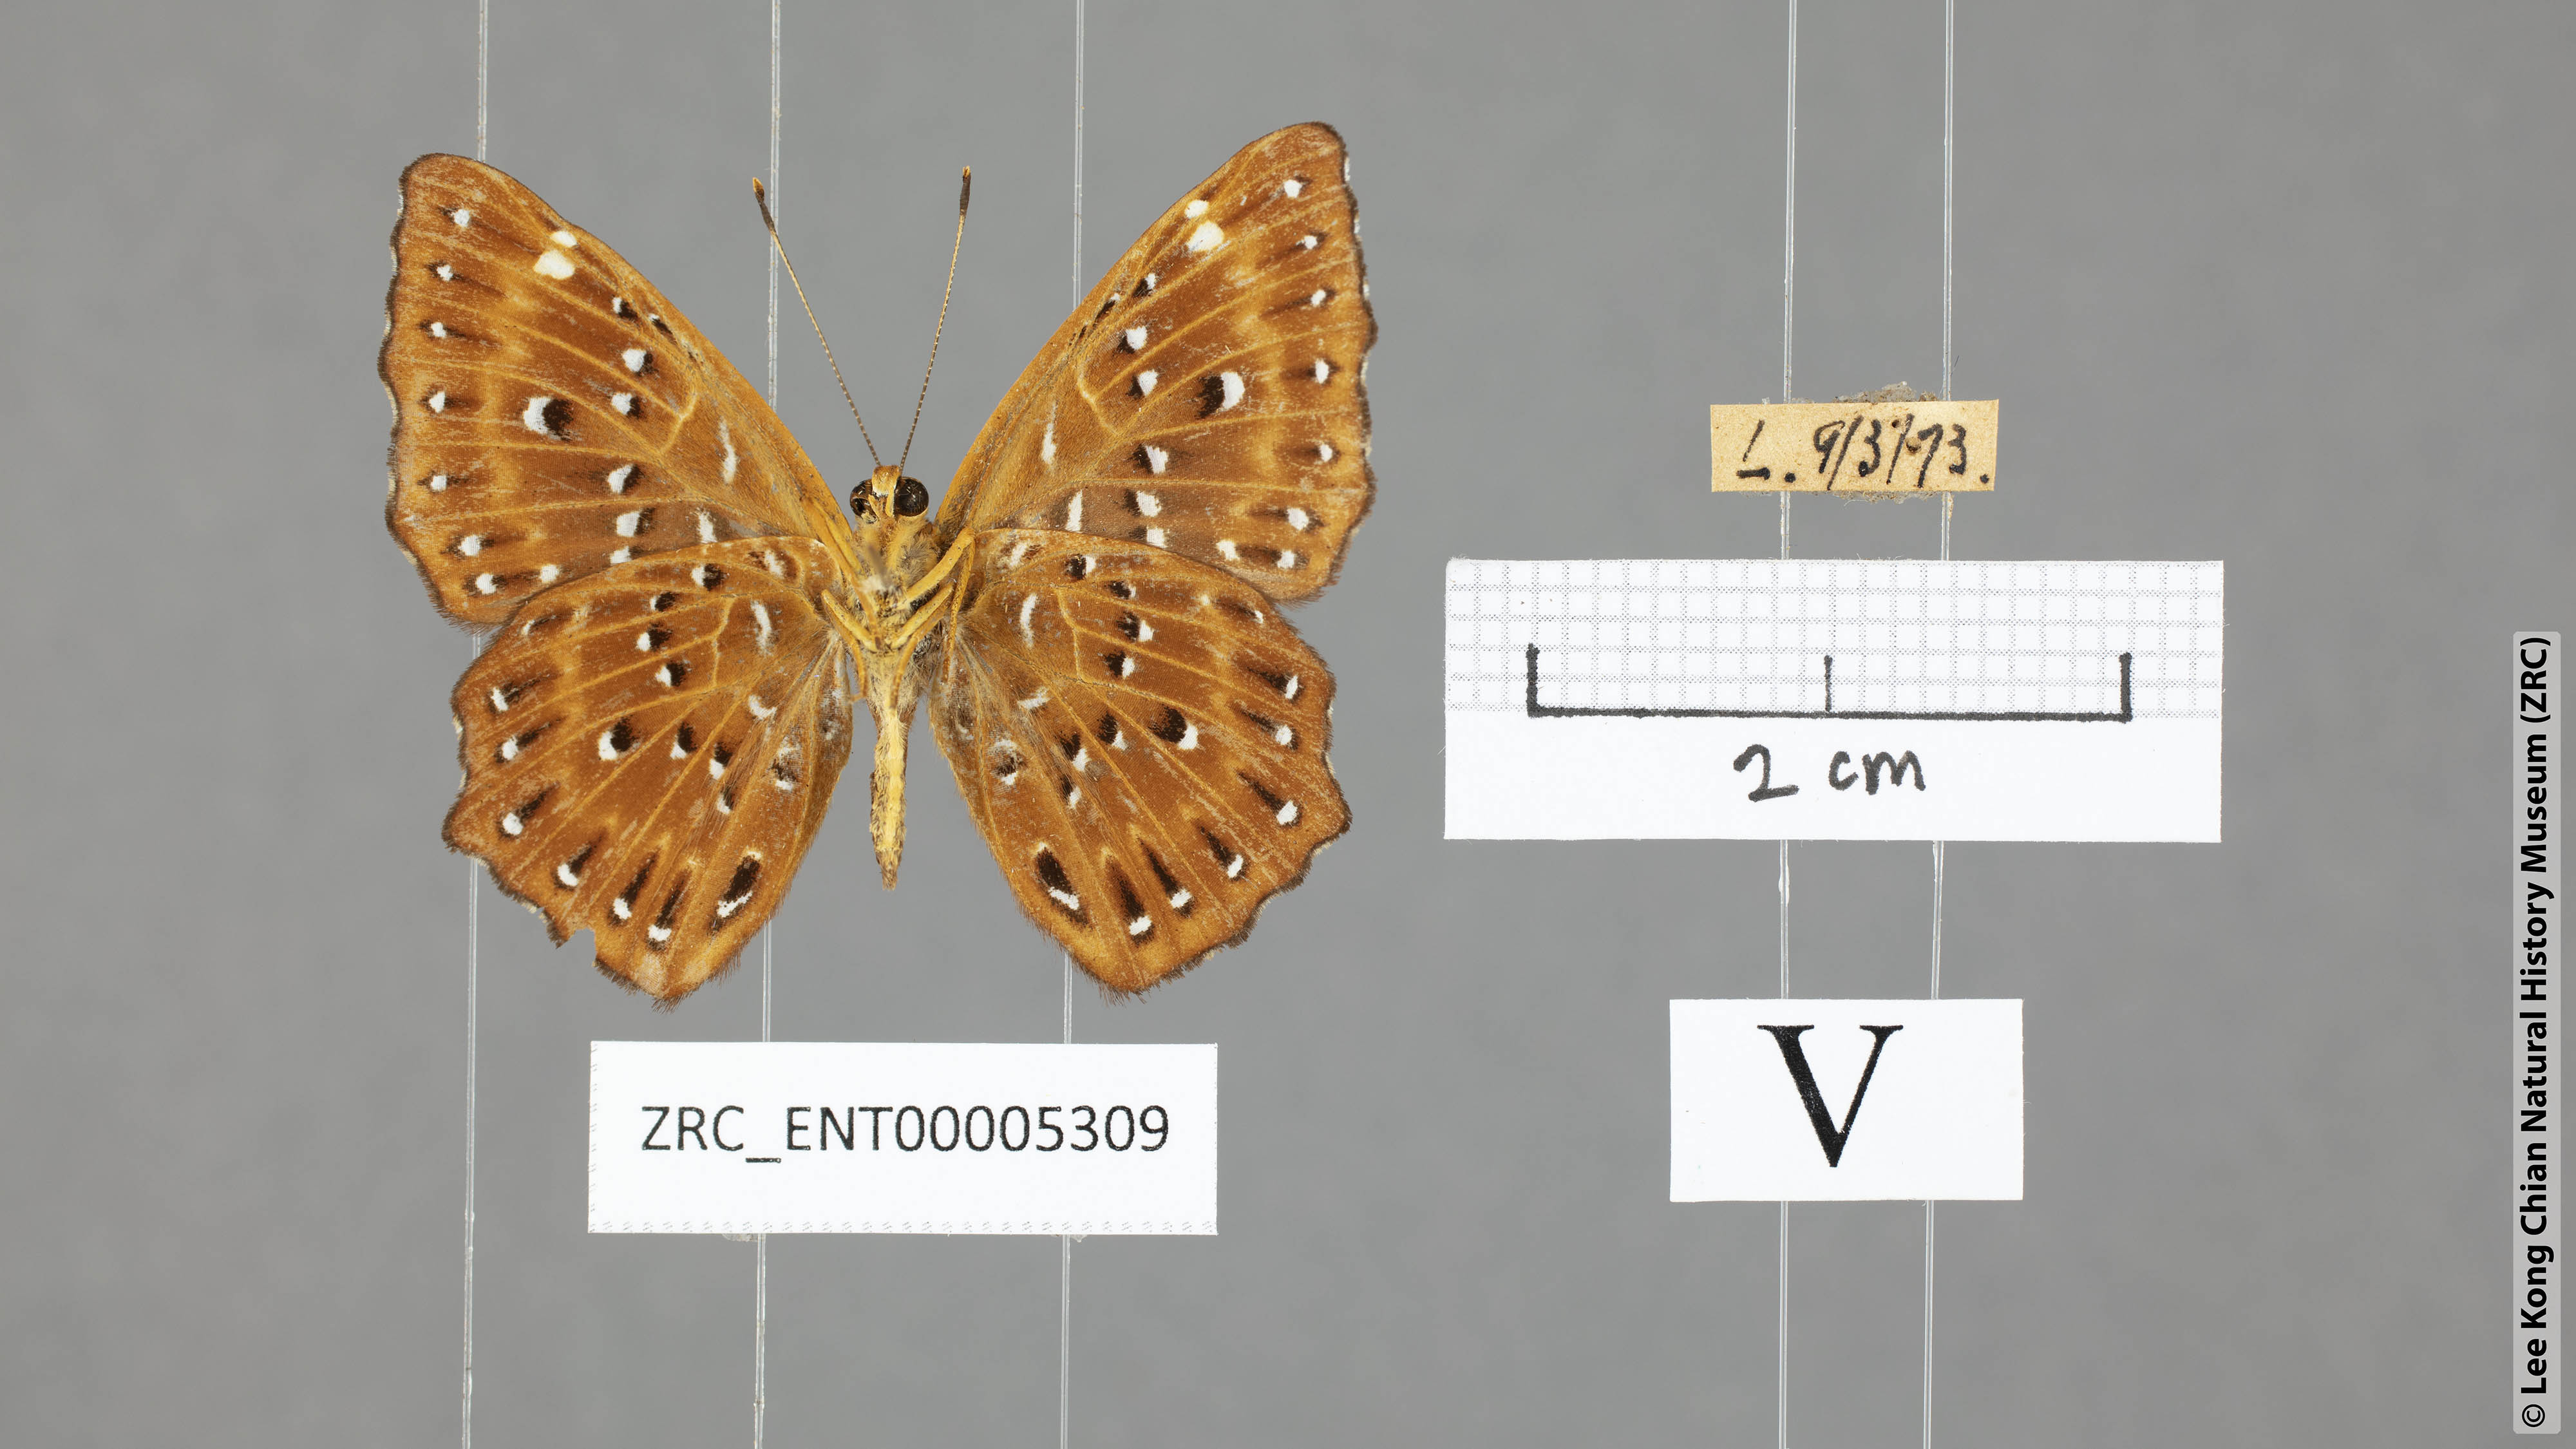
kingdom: Animalia
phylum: Arthropoda
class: Insecta
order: Lepidoptera
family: Riodinidae
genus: Zemeros
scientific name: Zemeros flegyas
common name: Punchinello
